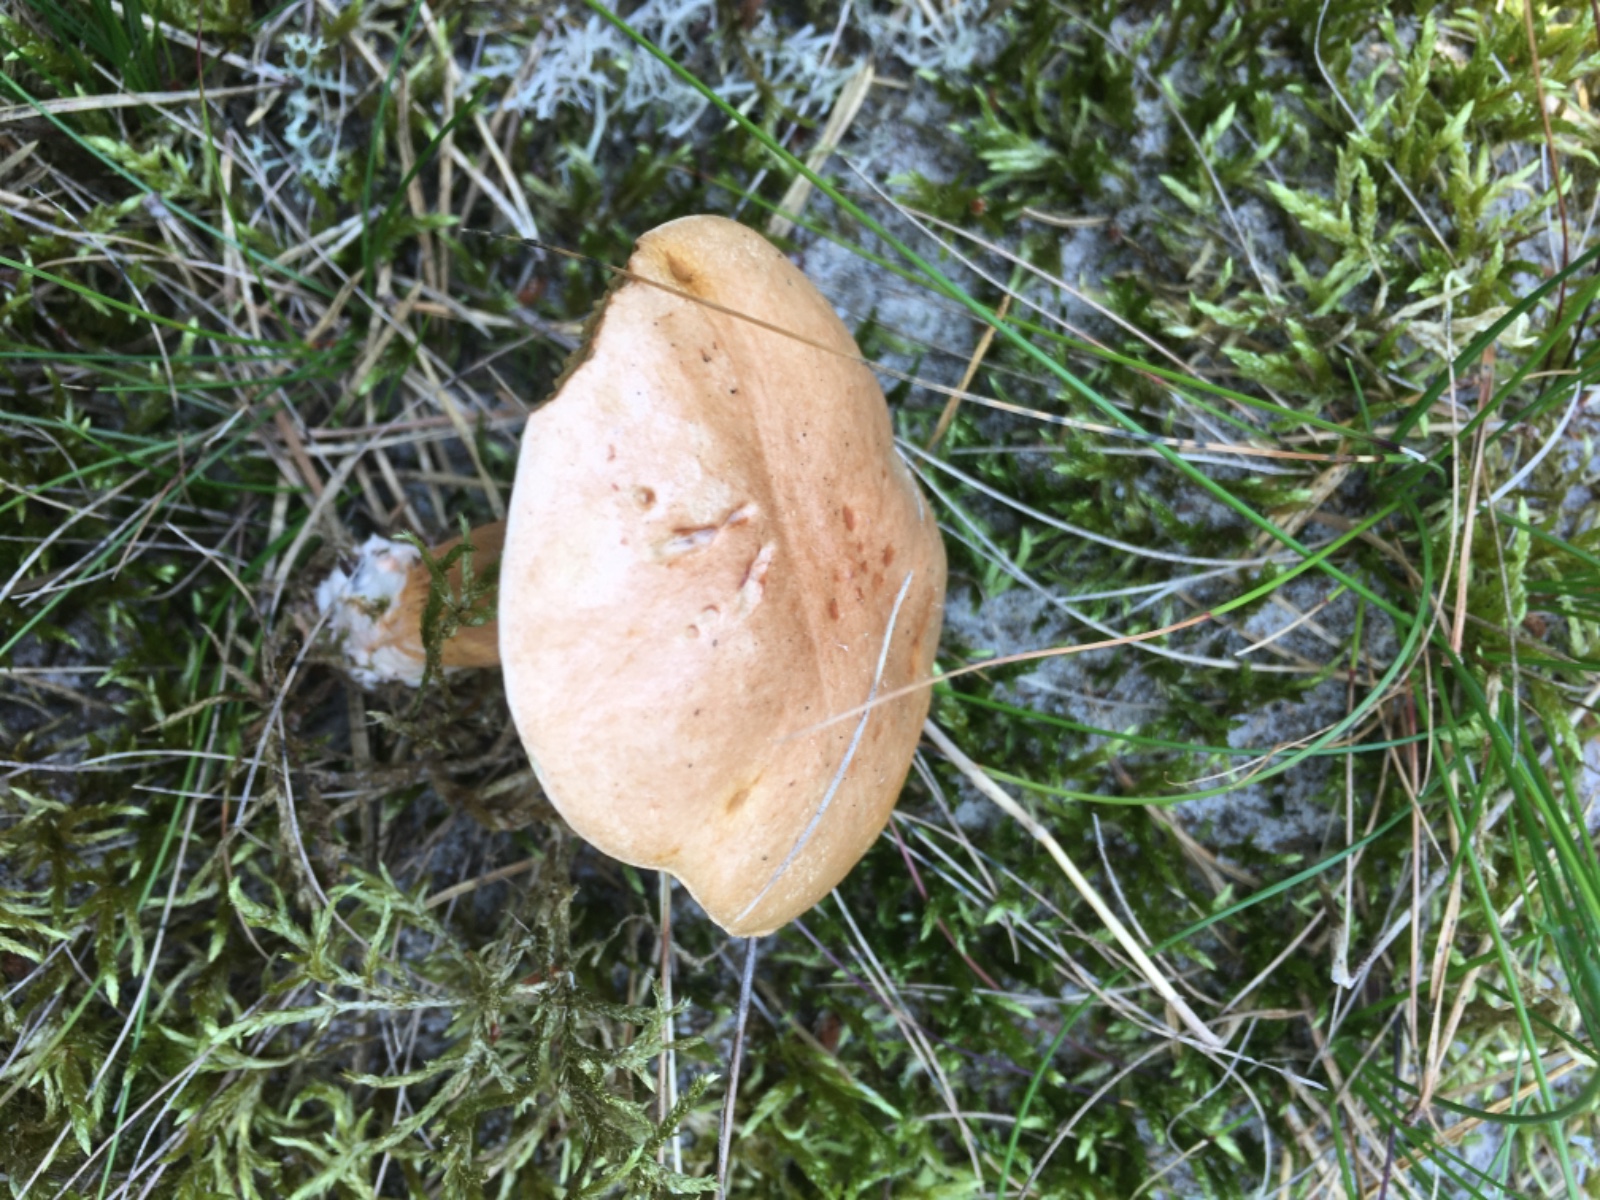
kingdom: Fungi
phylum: Basidiomycota
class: Agaricomycetes
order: Boletales
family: Suillaceae
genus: Suillus
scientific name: Suillus bovinus
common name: grovporet slimrørhat
